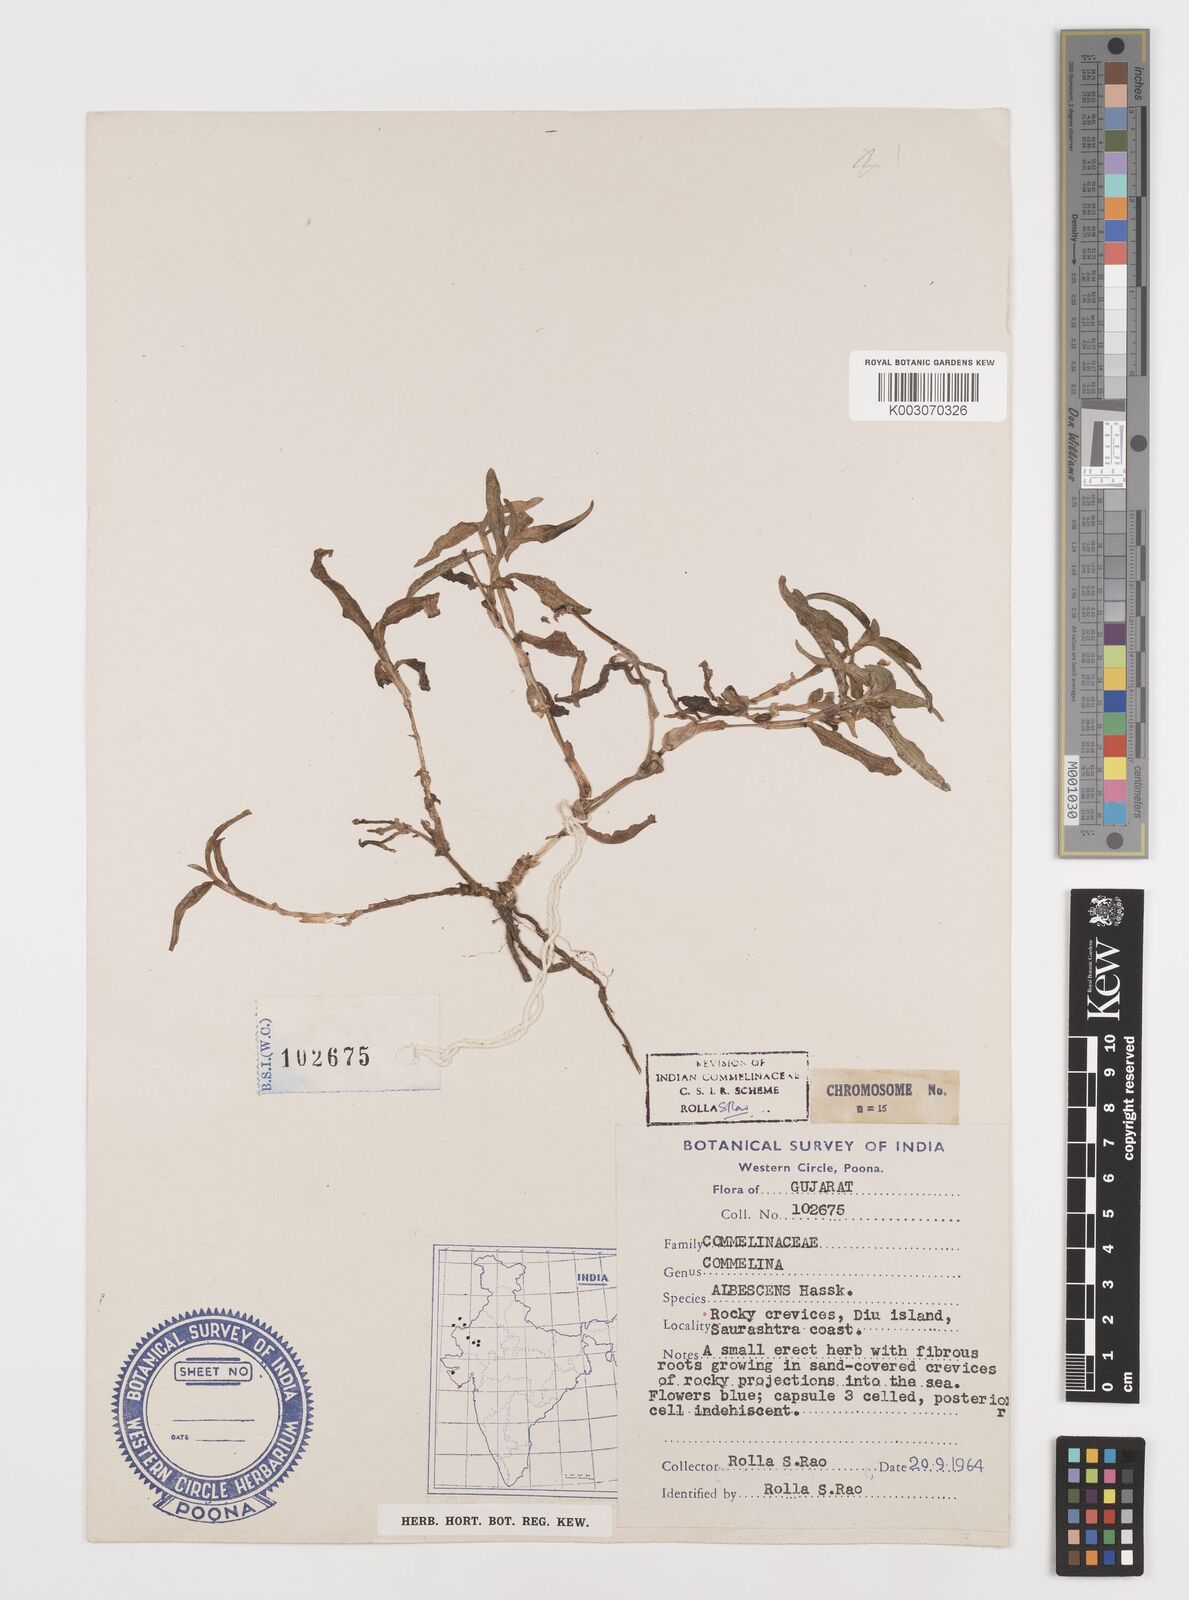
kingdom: Plantae
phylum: Tracheophyta
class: Liliopsida
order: Commelinales
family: Commelinaceae
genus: Commelina
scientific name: Commelina albescens
